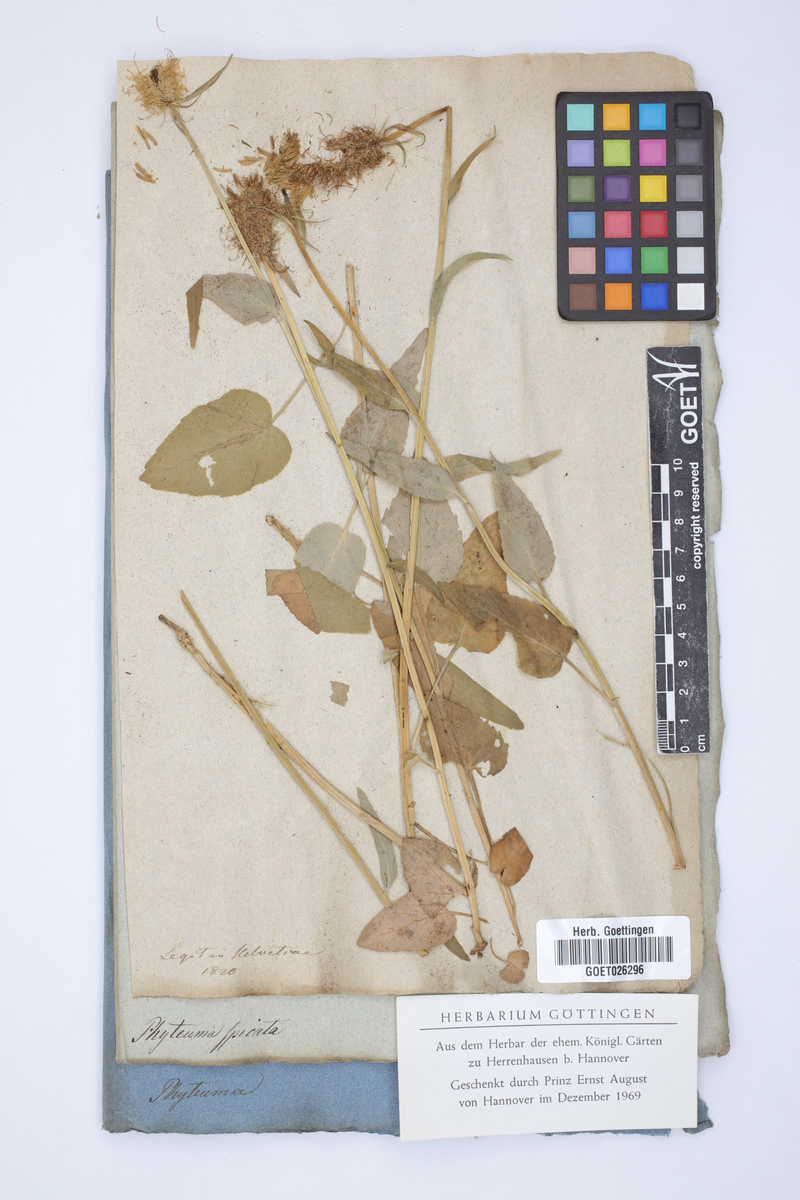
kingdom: Plantae
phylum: Tracheophyta
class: Magnoliopsida
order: Asterales
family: Campanulaceae
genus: Phyteuma
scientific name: Phyteuma spicatum
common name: Spiked rampion
